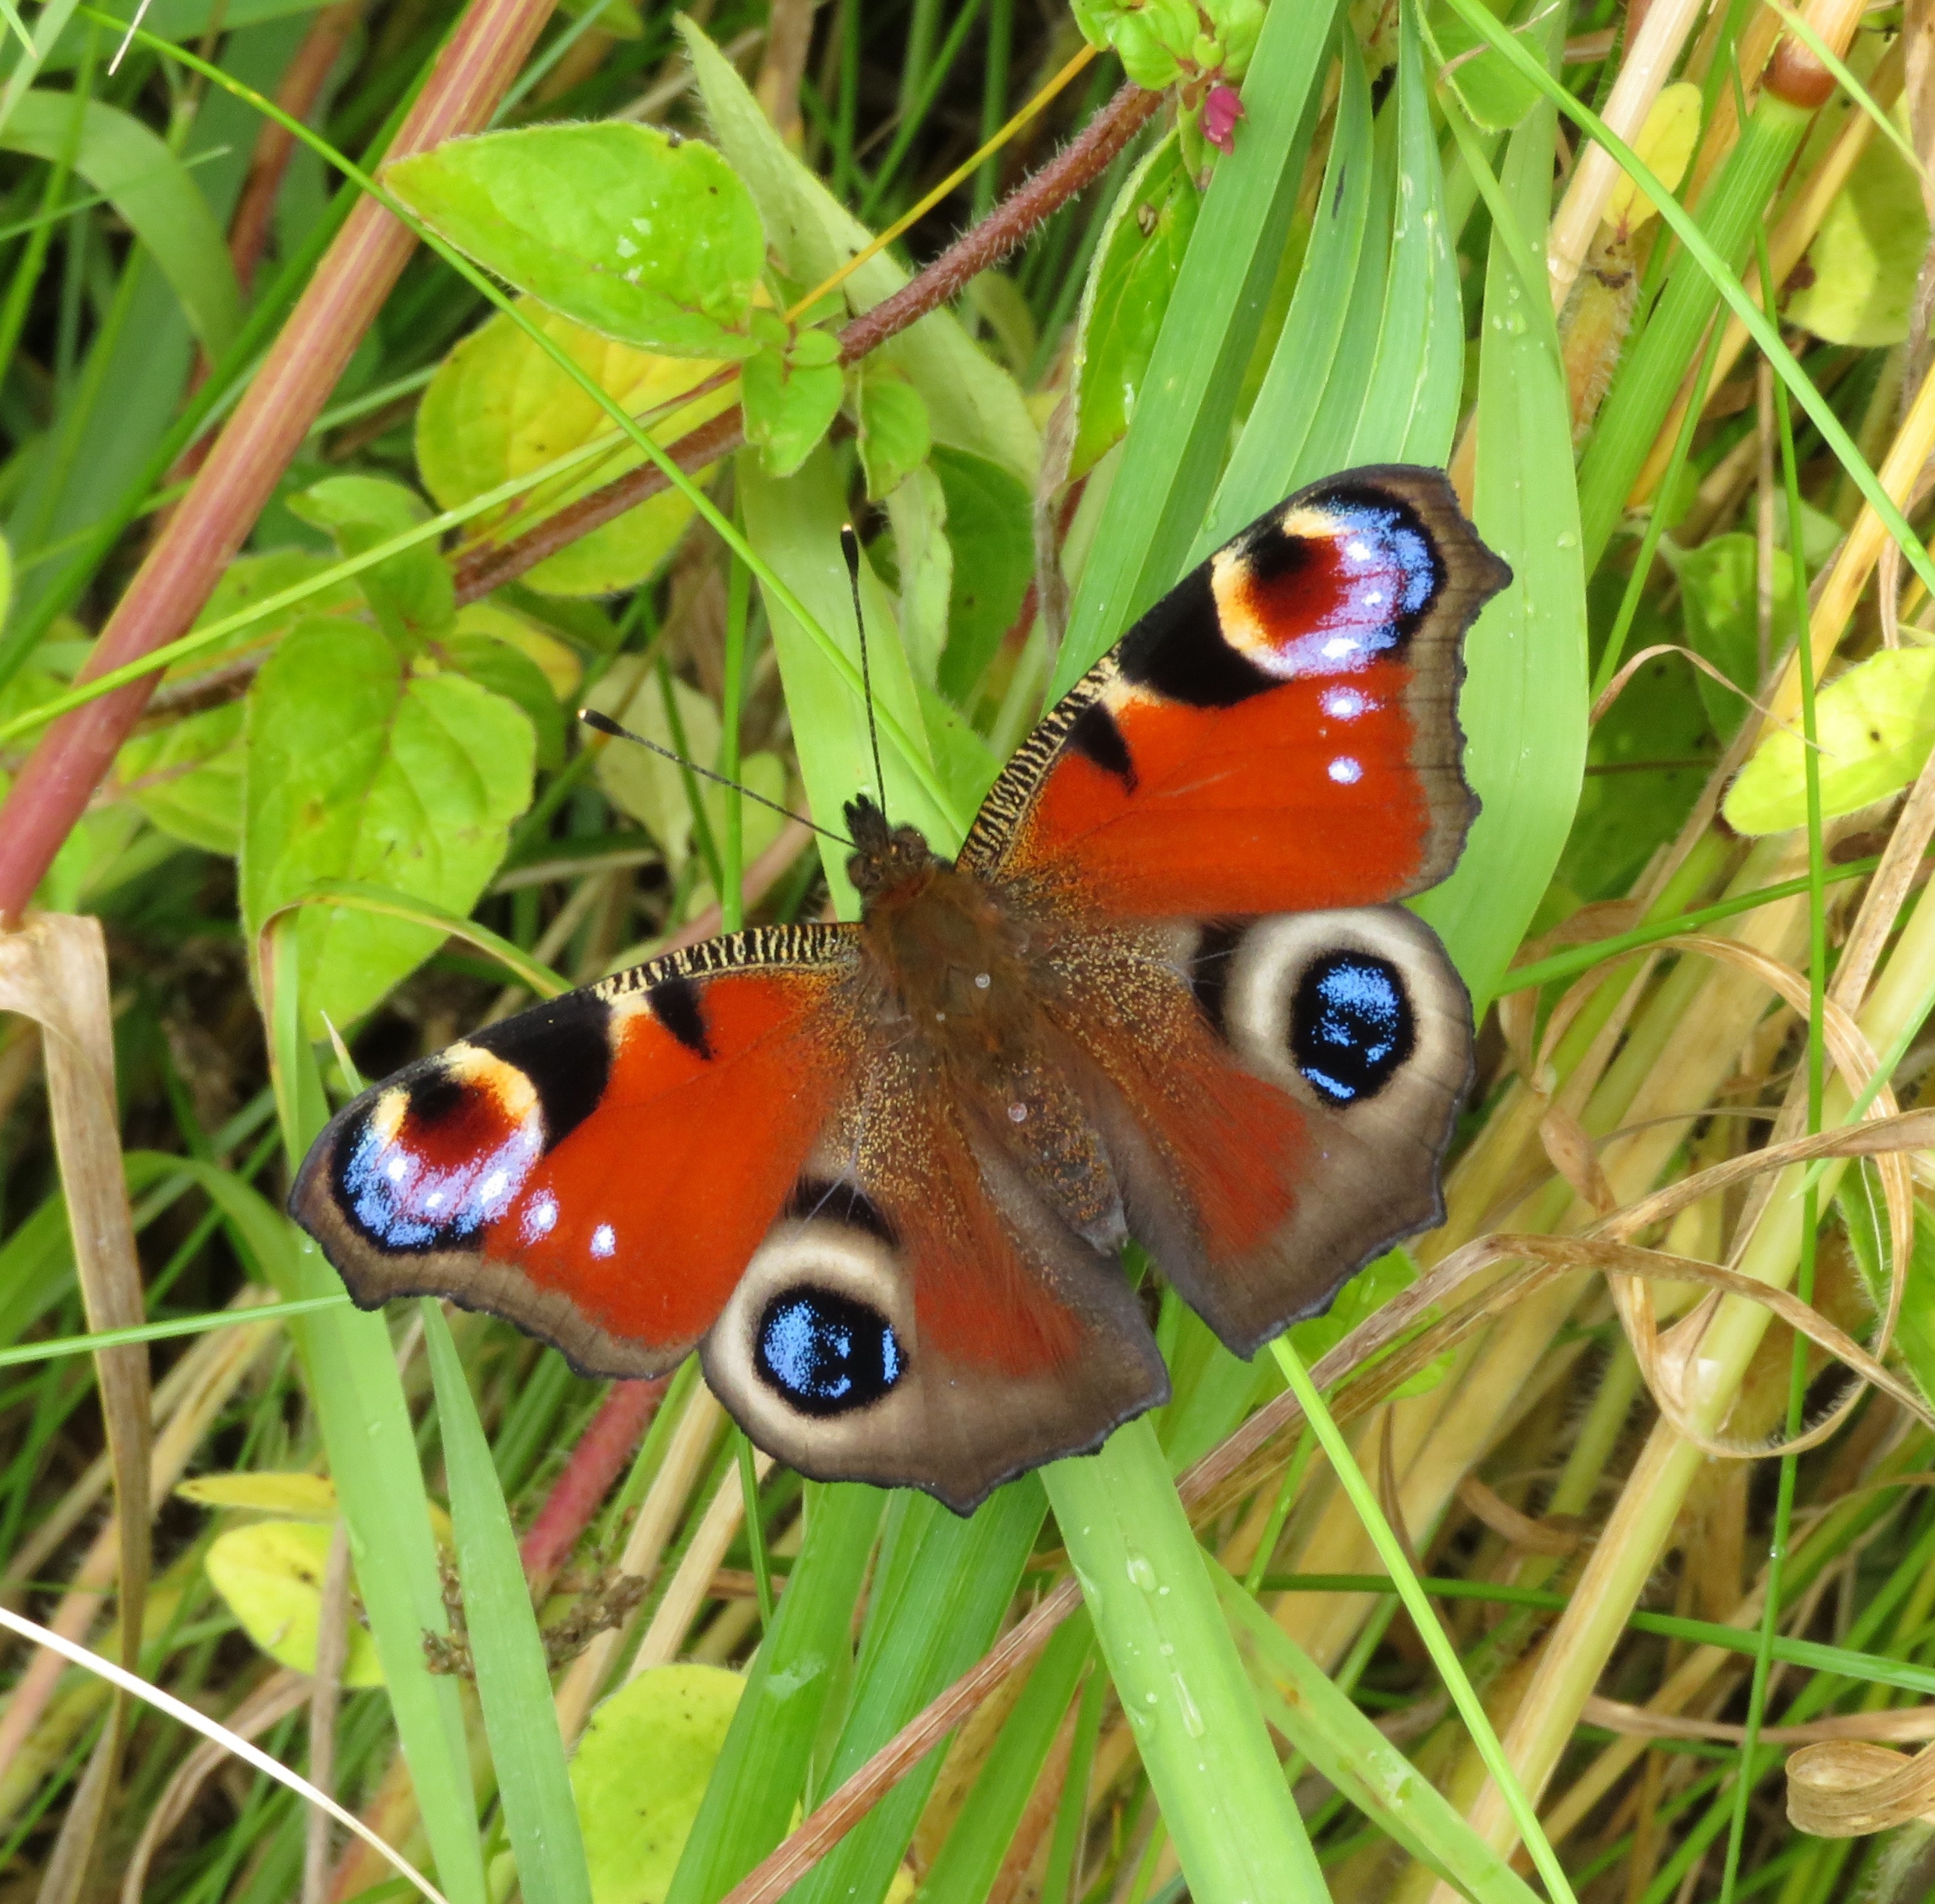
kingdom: Animalia
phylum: Arthropoda
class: Insecta
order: Lepidoptera
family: Nymphalidae
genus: Aglais
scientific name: Aglais io
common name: Dagpåfugleøje
